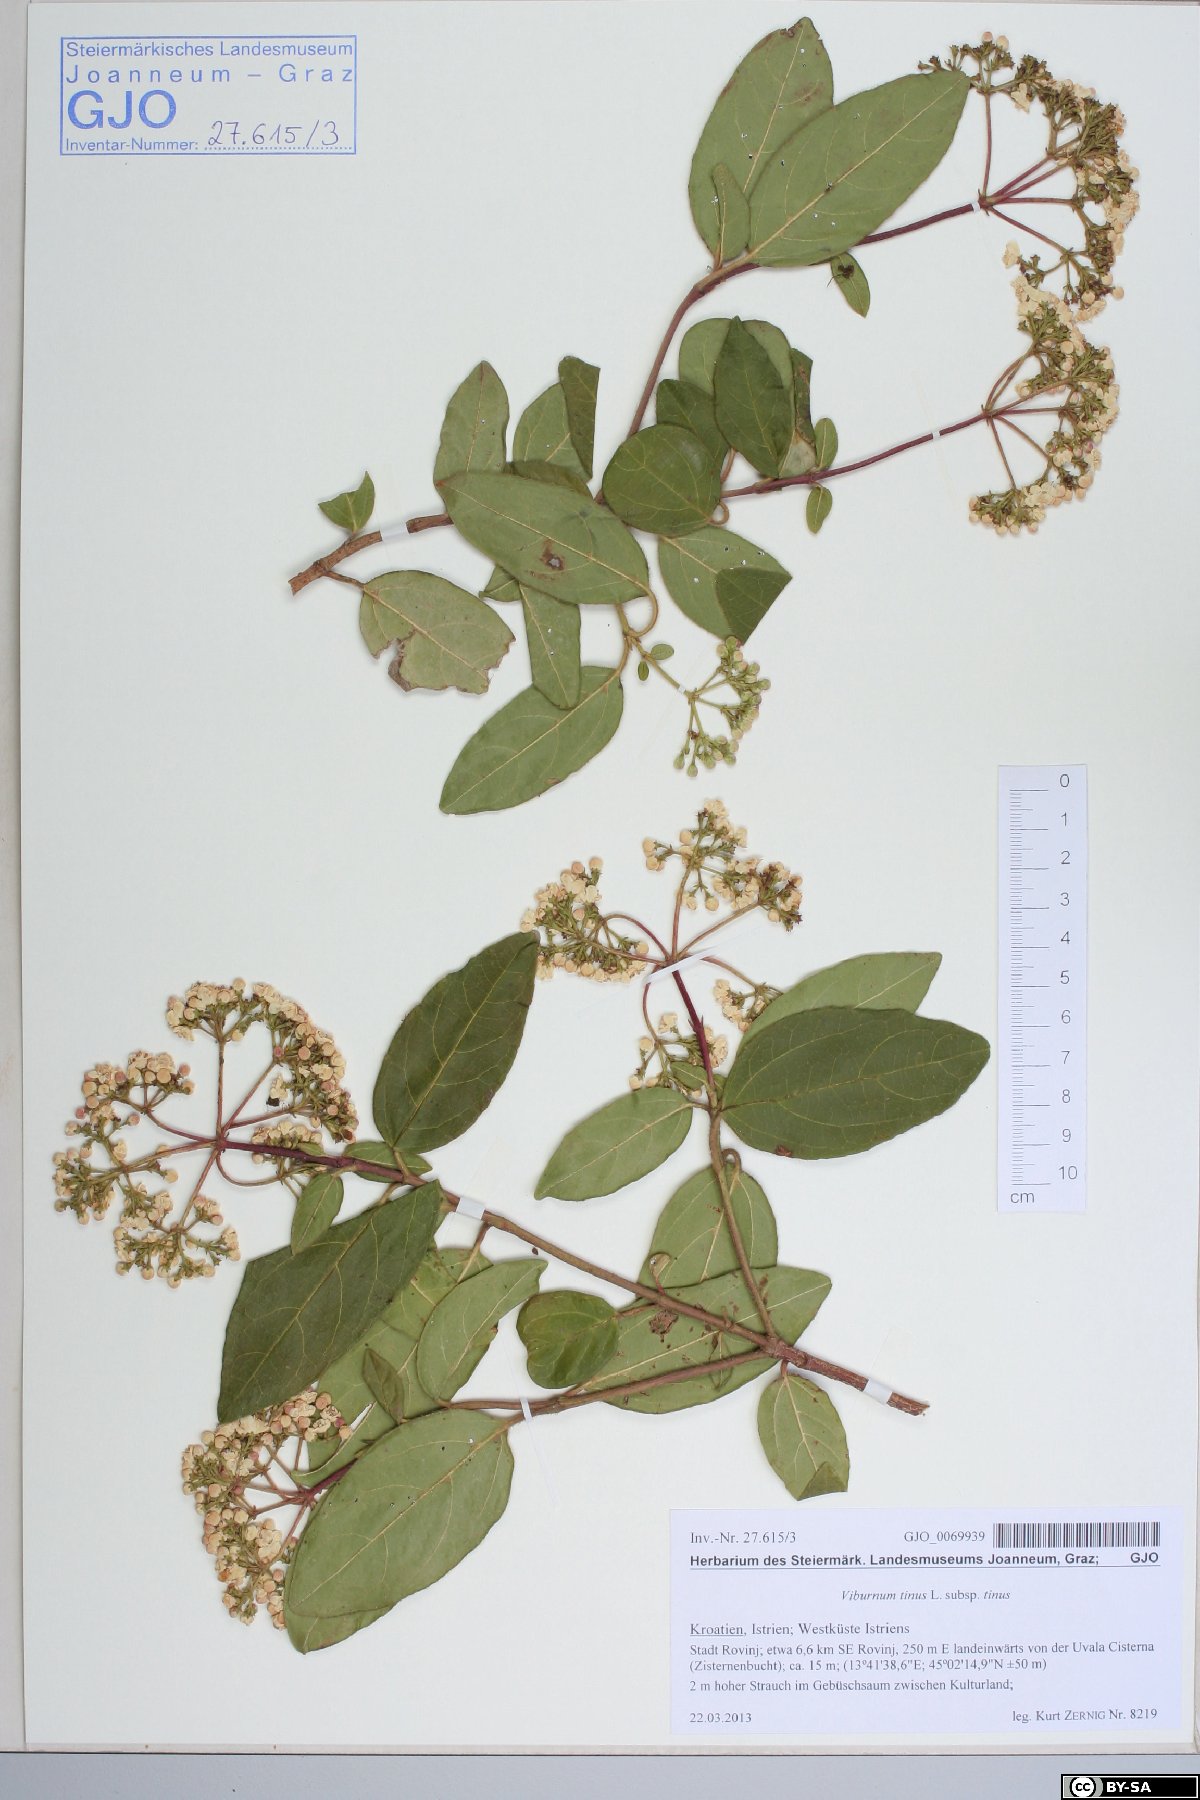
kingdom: Plantae
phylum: Tracheophyta
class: Magnoliopsida
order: Dipsacales
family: Viburnaceae
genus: Viburnum
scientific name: Viburnum tinus
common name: Laurustinus
